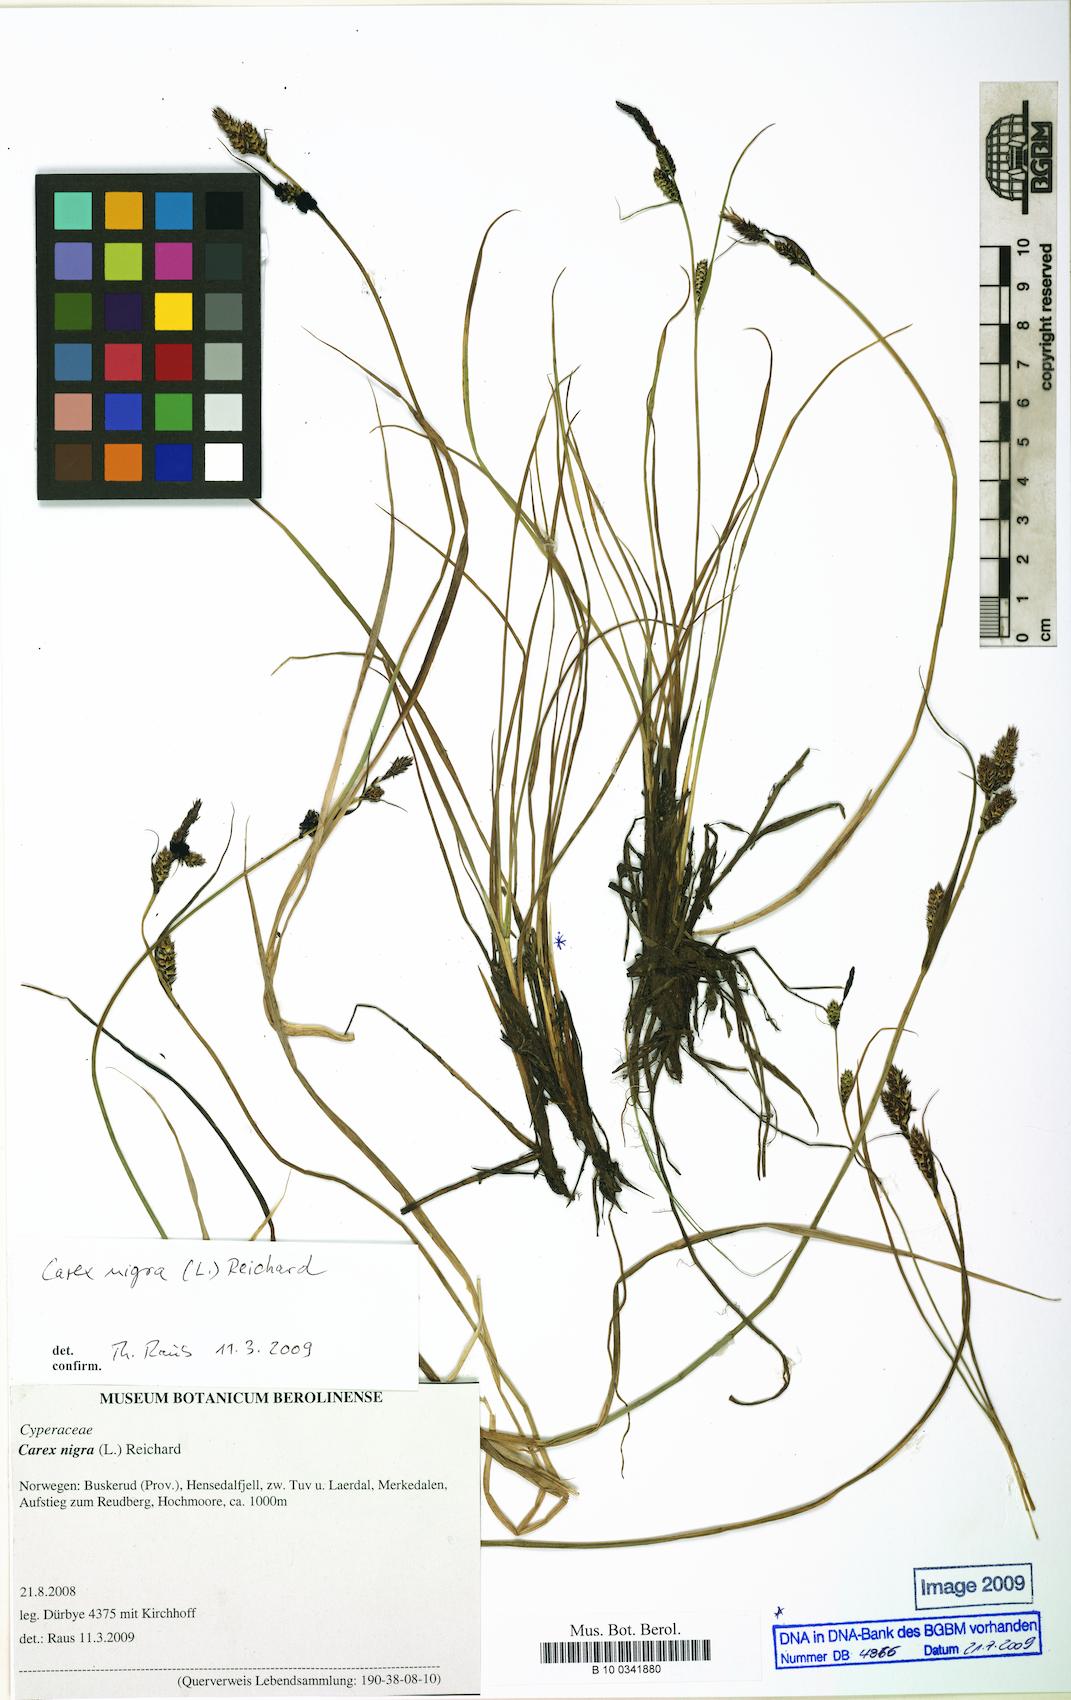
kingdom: Plantae
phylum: Tracheophyta
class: Liliopsida
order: Poales
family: Cyperaceae
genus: Carex
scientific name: Carex nigra
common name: Common sedge
